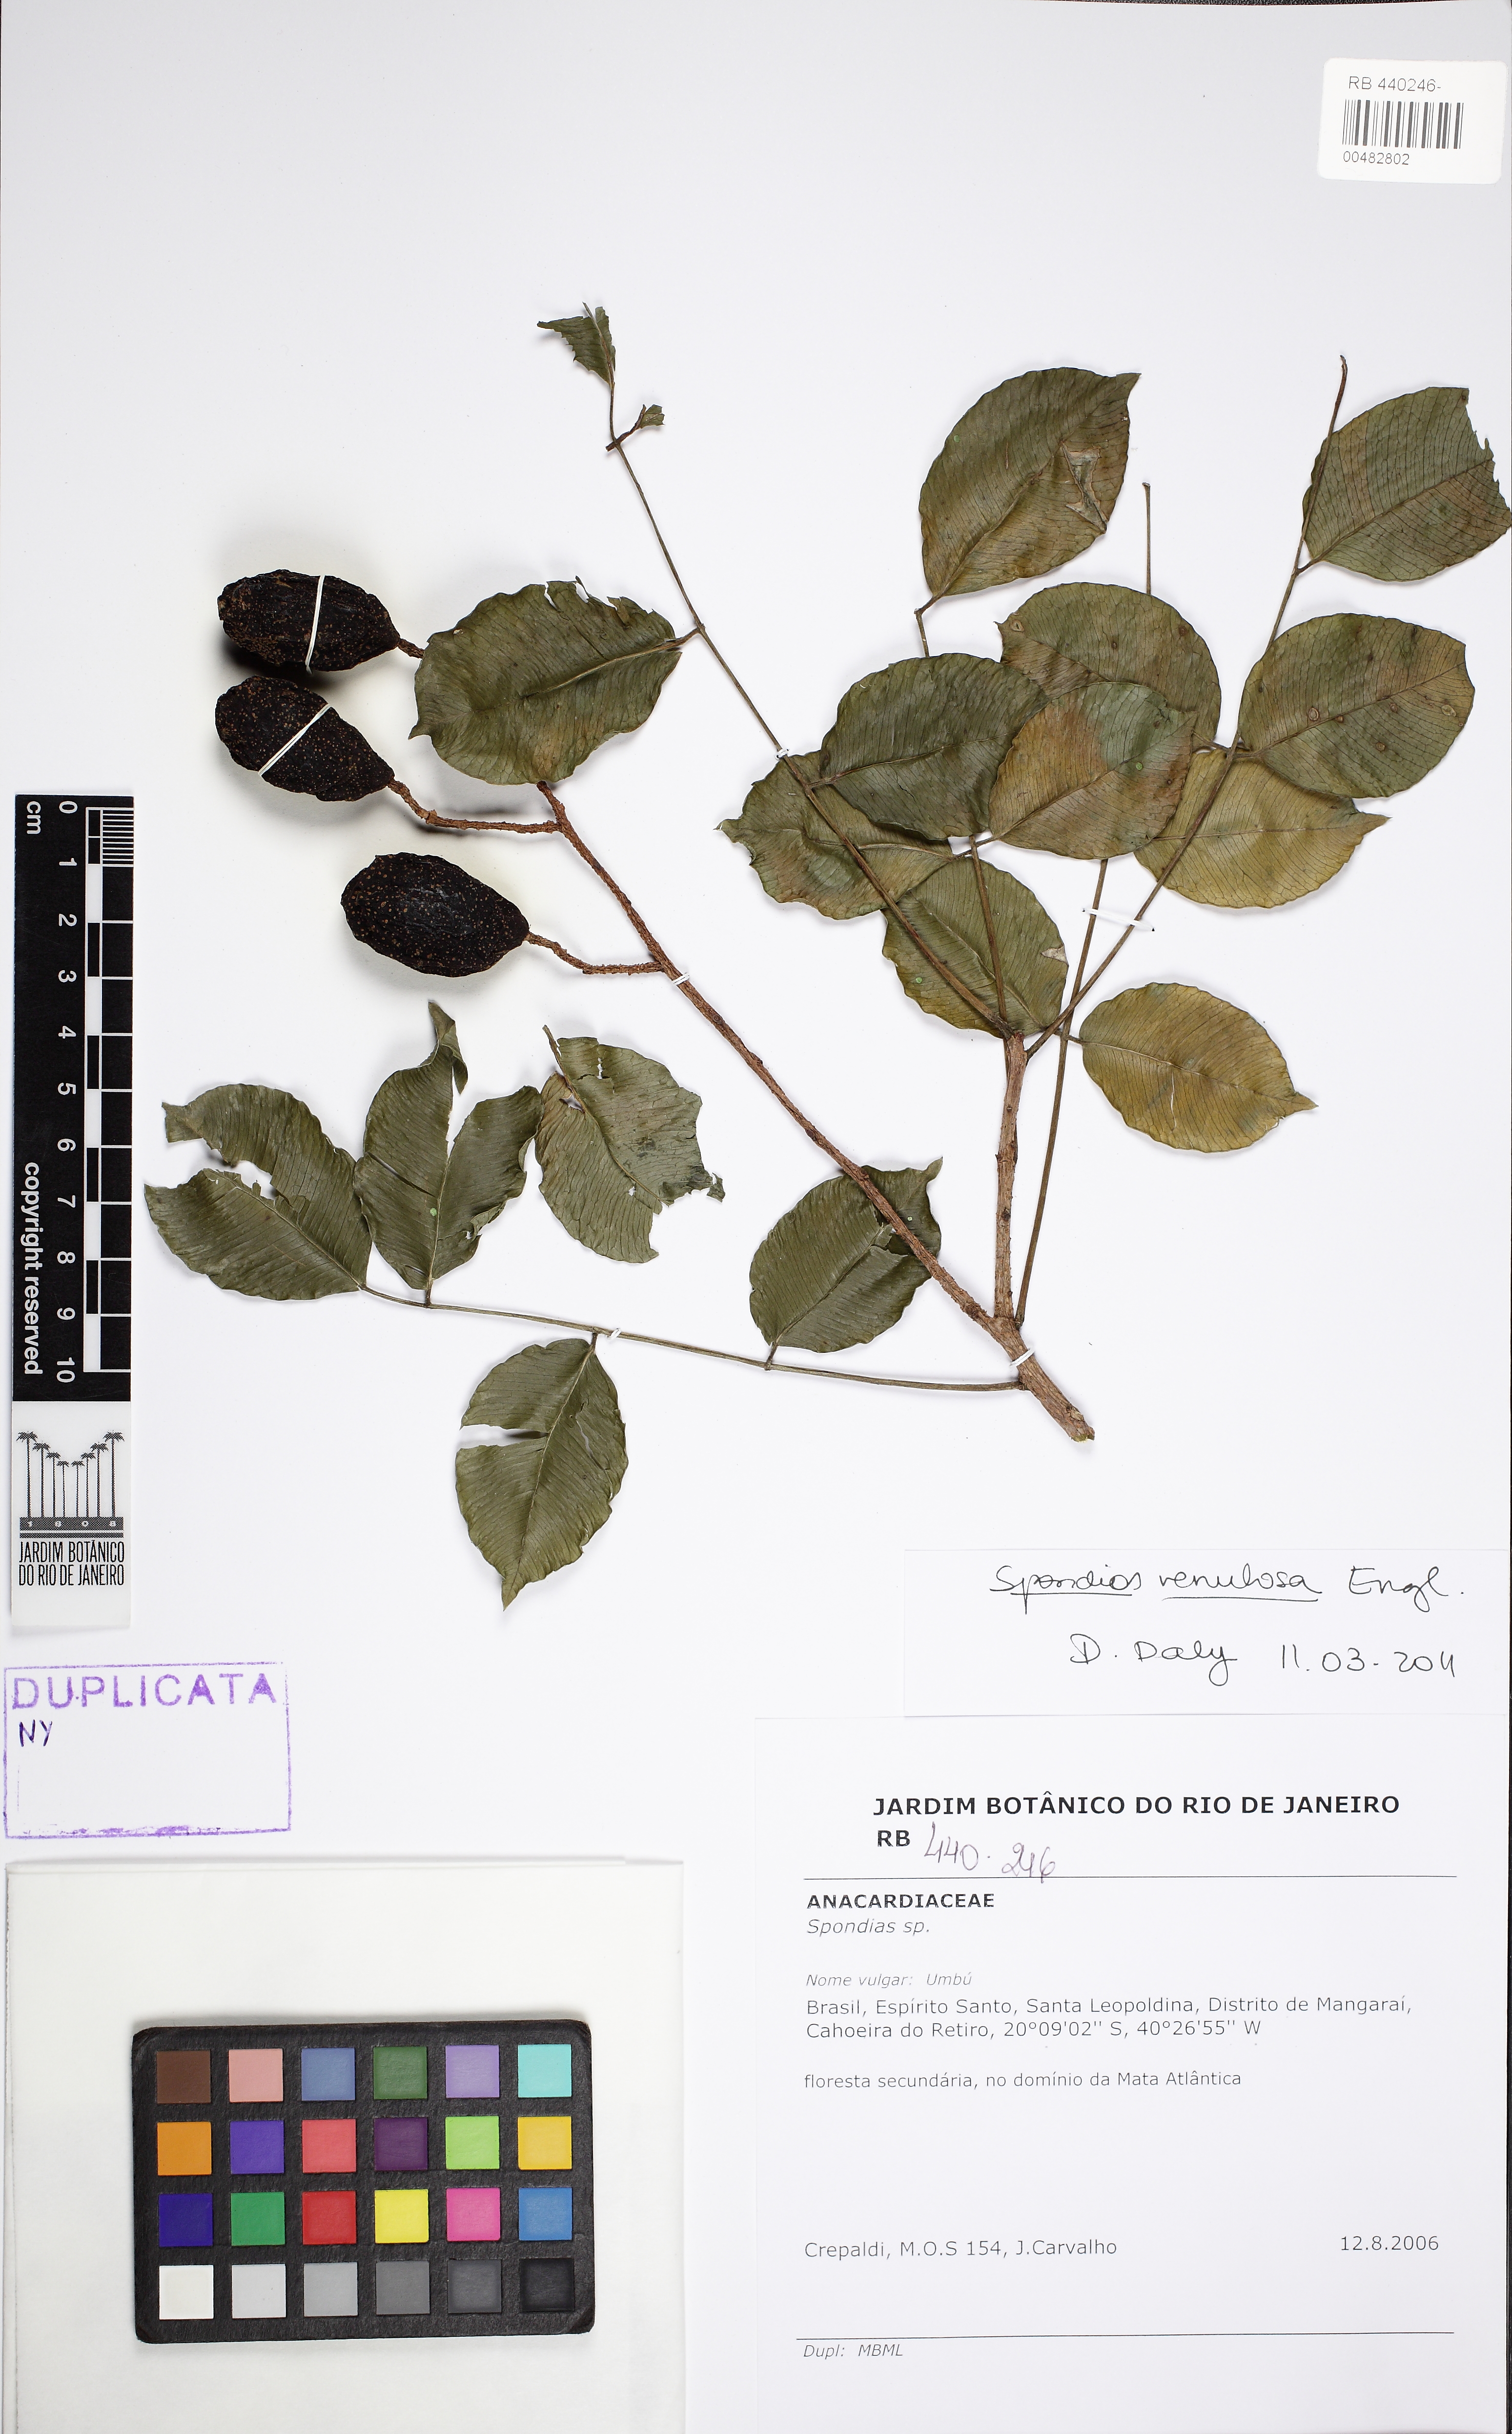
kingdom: Plantae
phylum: Tracheophyta
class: Magnoliopsida
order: Sapindales
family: Anacardiaceae
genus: Spondias
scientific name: Spondias venulosa
